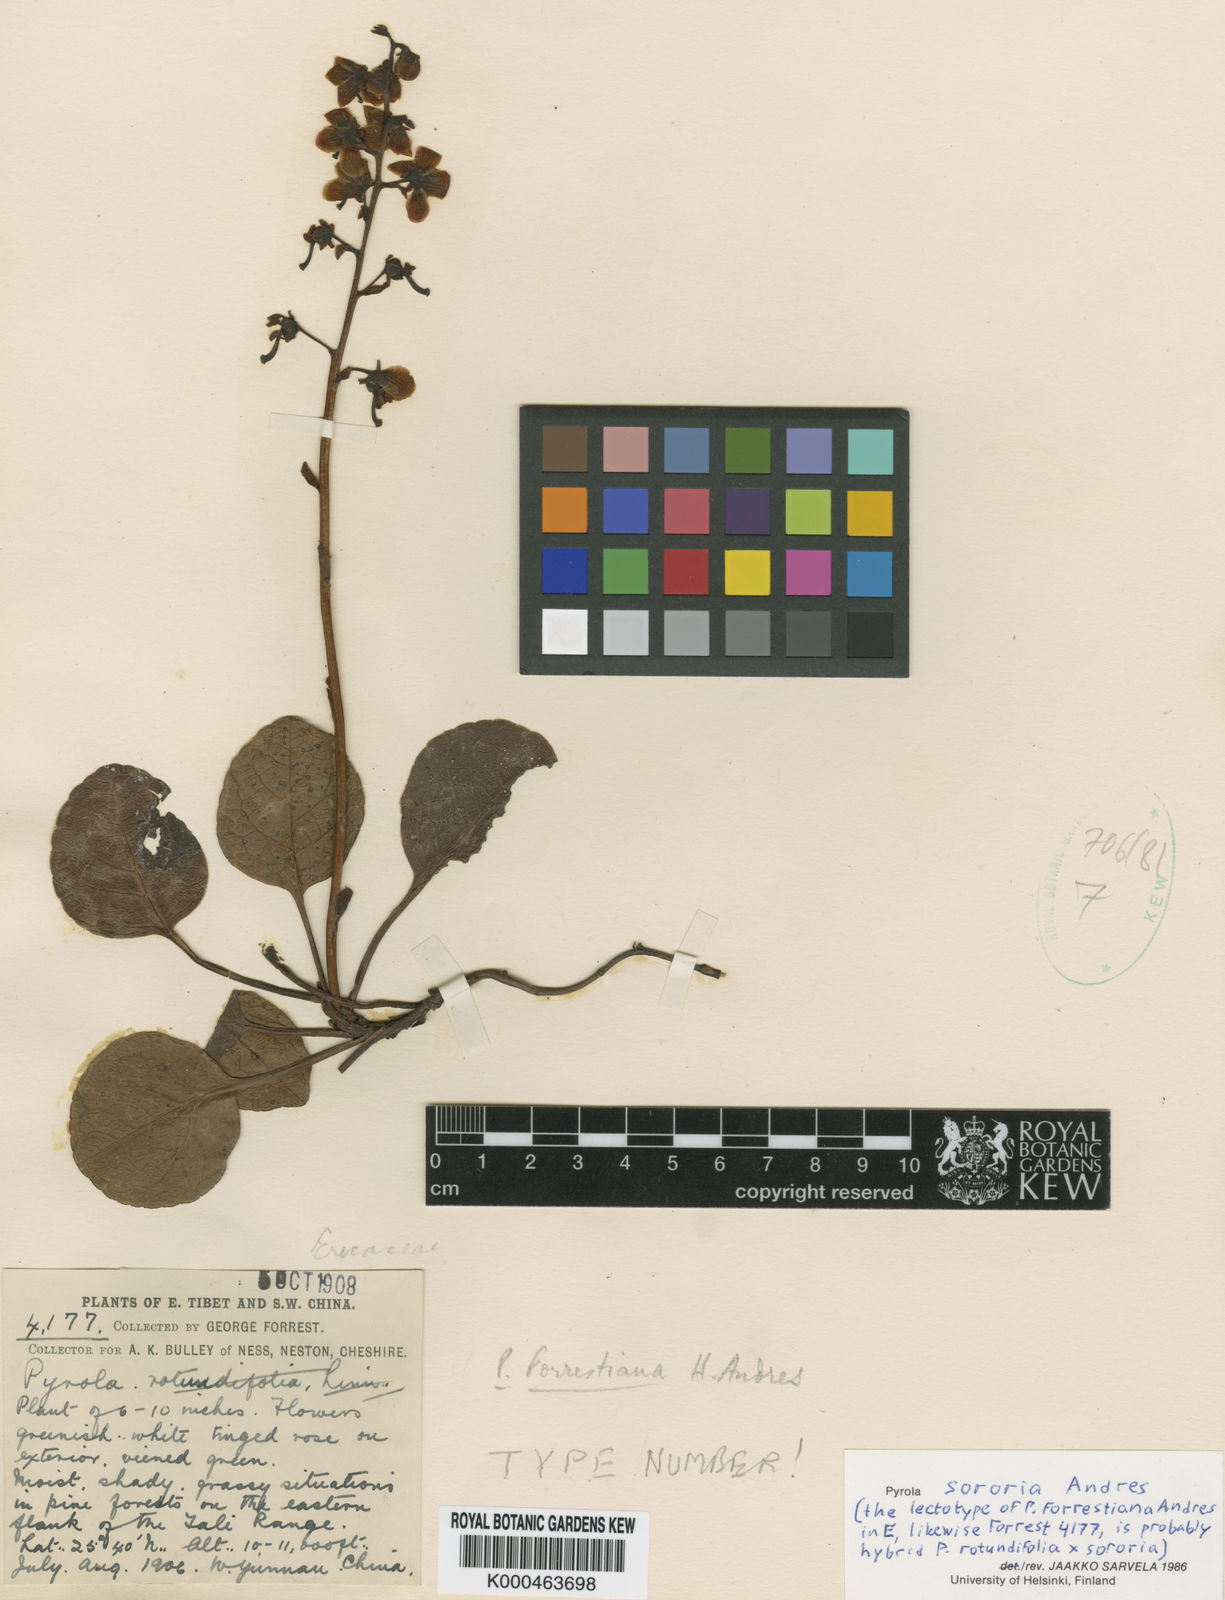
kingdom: Plantae
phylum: Tracheophyta
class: Magnoliopsida
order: Ericales
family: Ericaceae
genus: Pyrola
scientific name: Pyrola sororia
